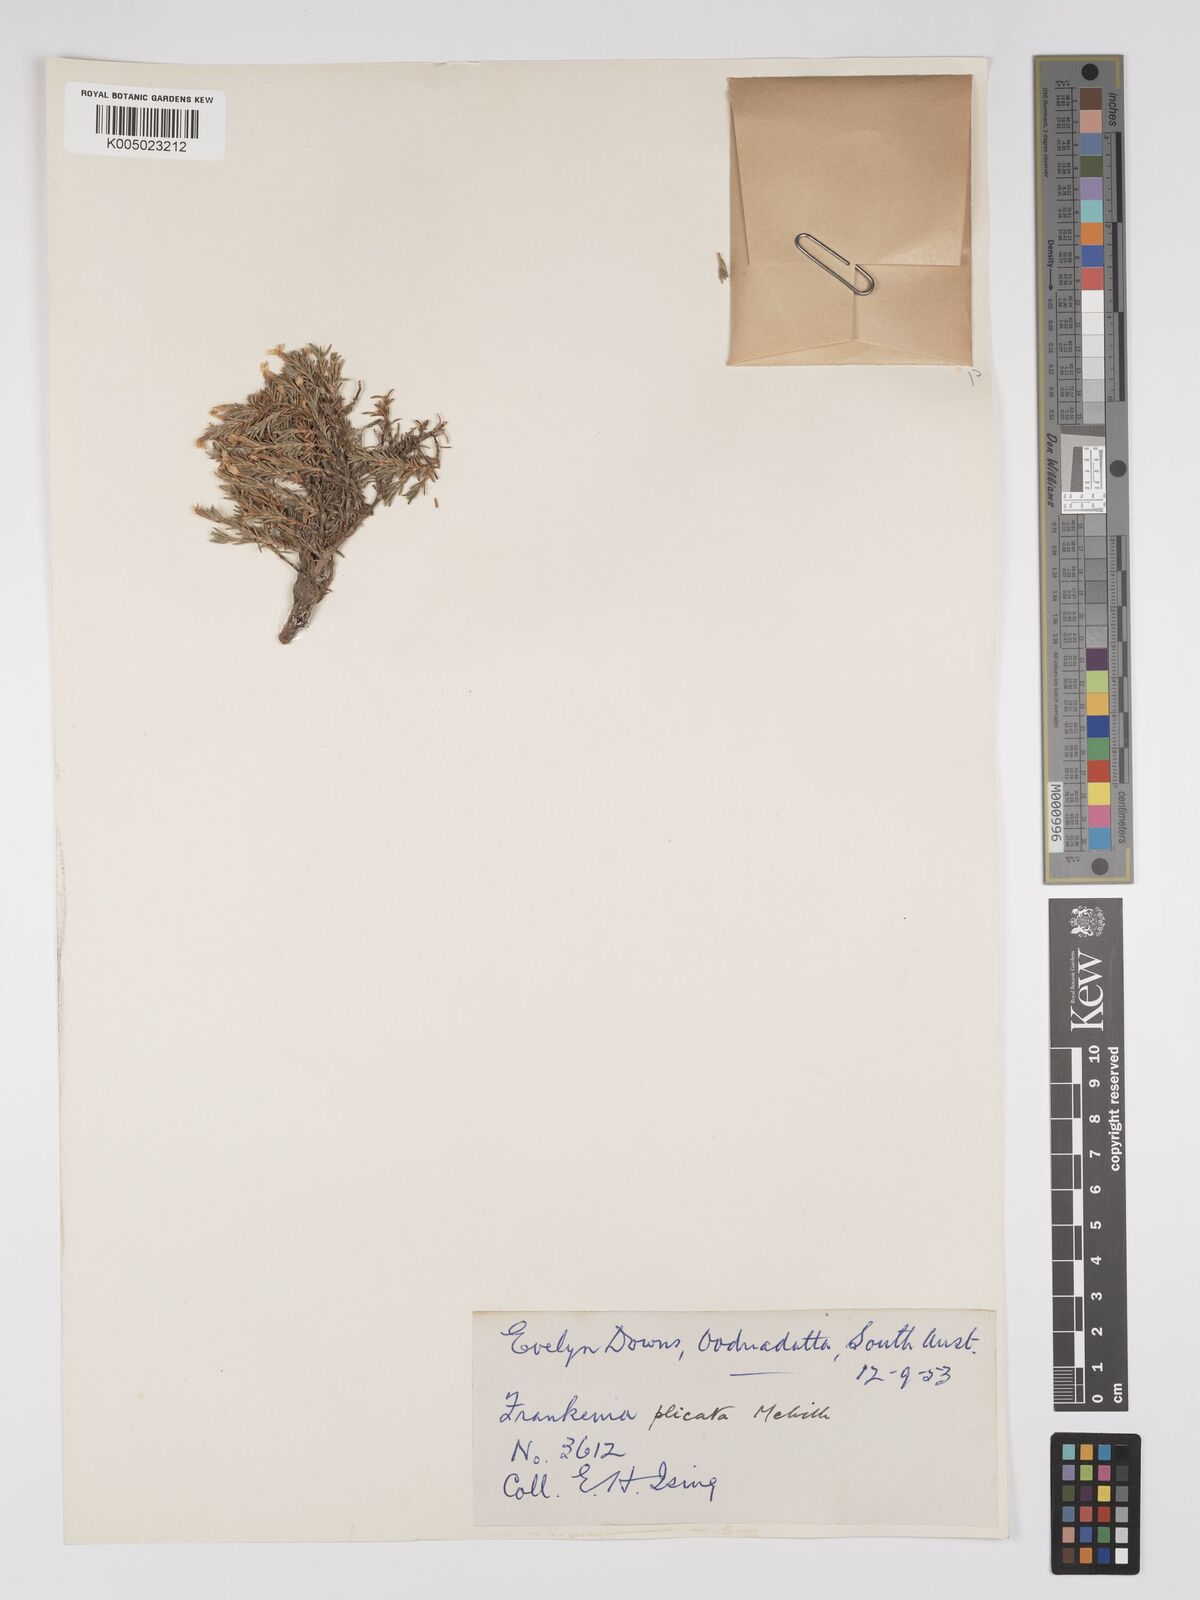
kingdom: Plantae
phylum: Tracheophyta
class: Magnoliopsida
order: Caryophyllales
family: Frankeniaceae
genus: Frankenia
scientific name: Frankenia plicata
